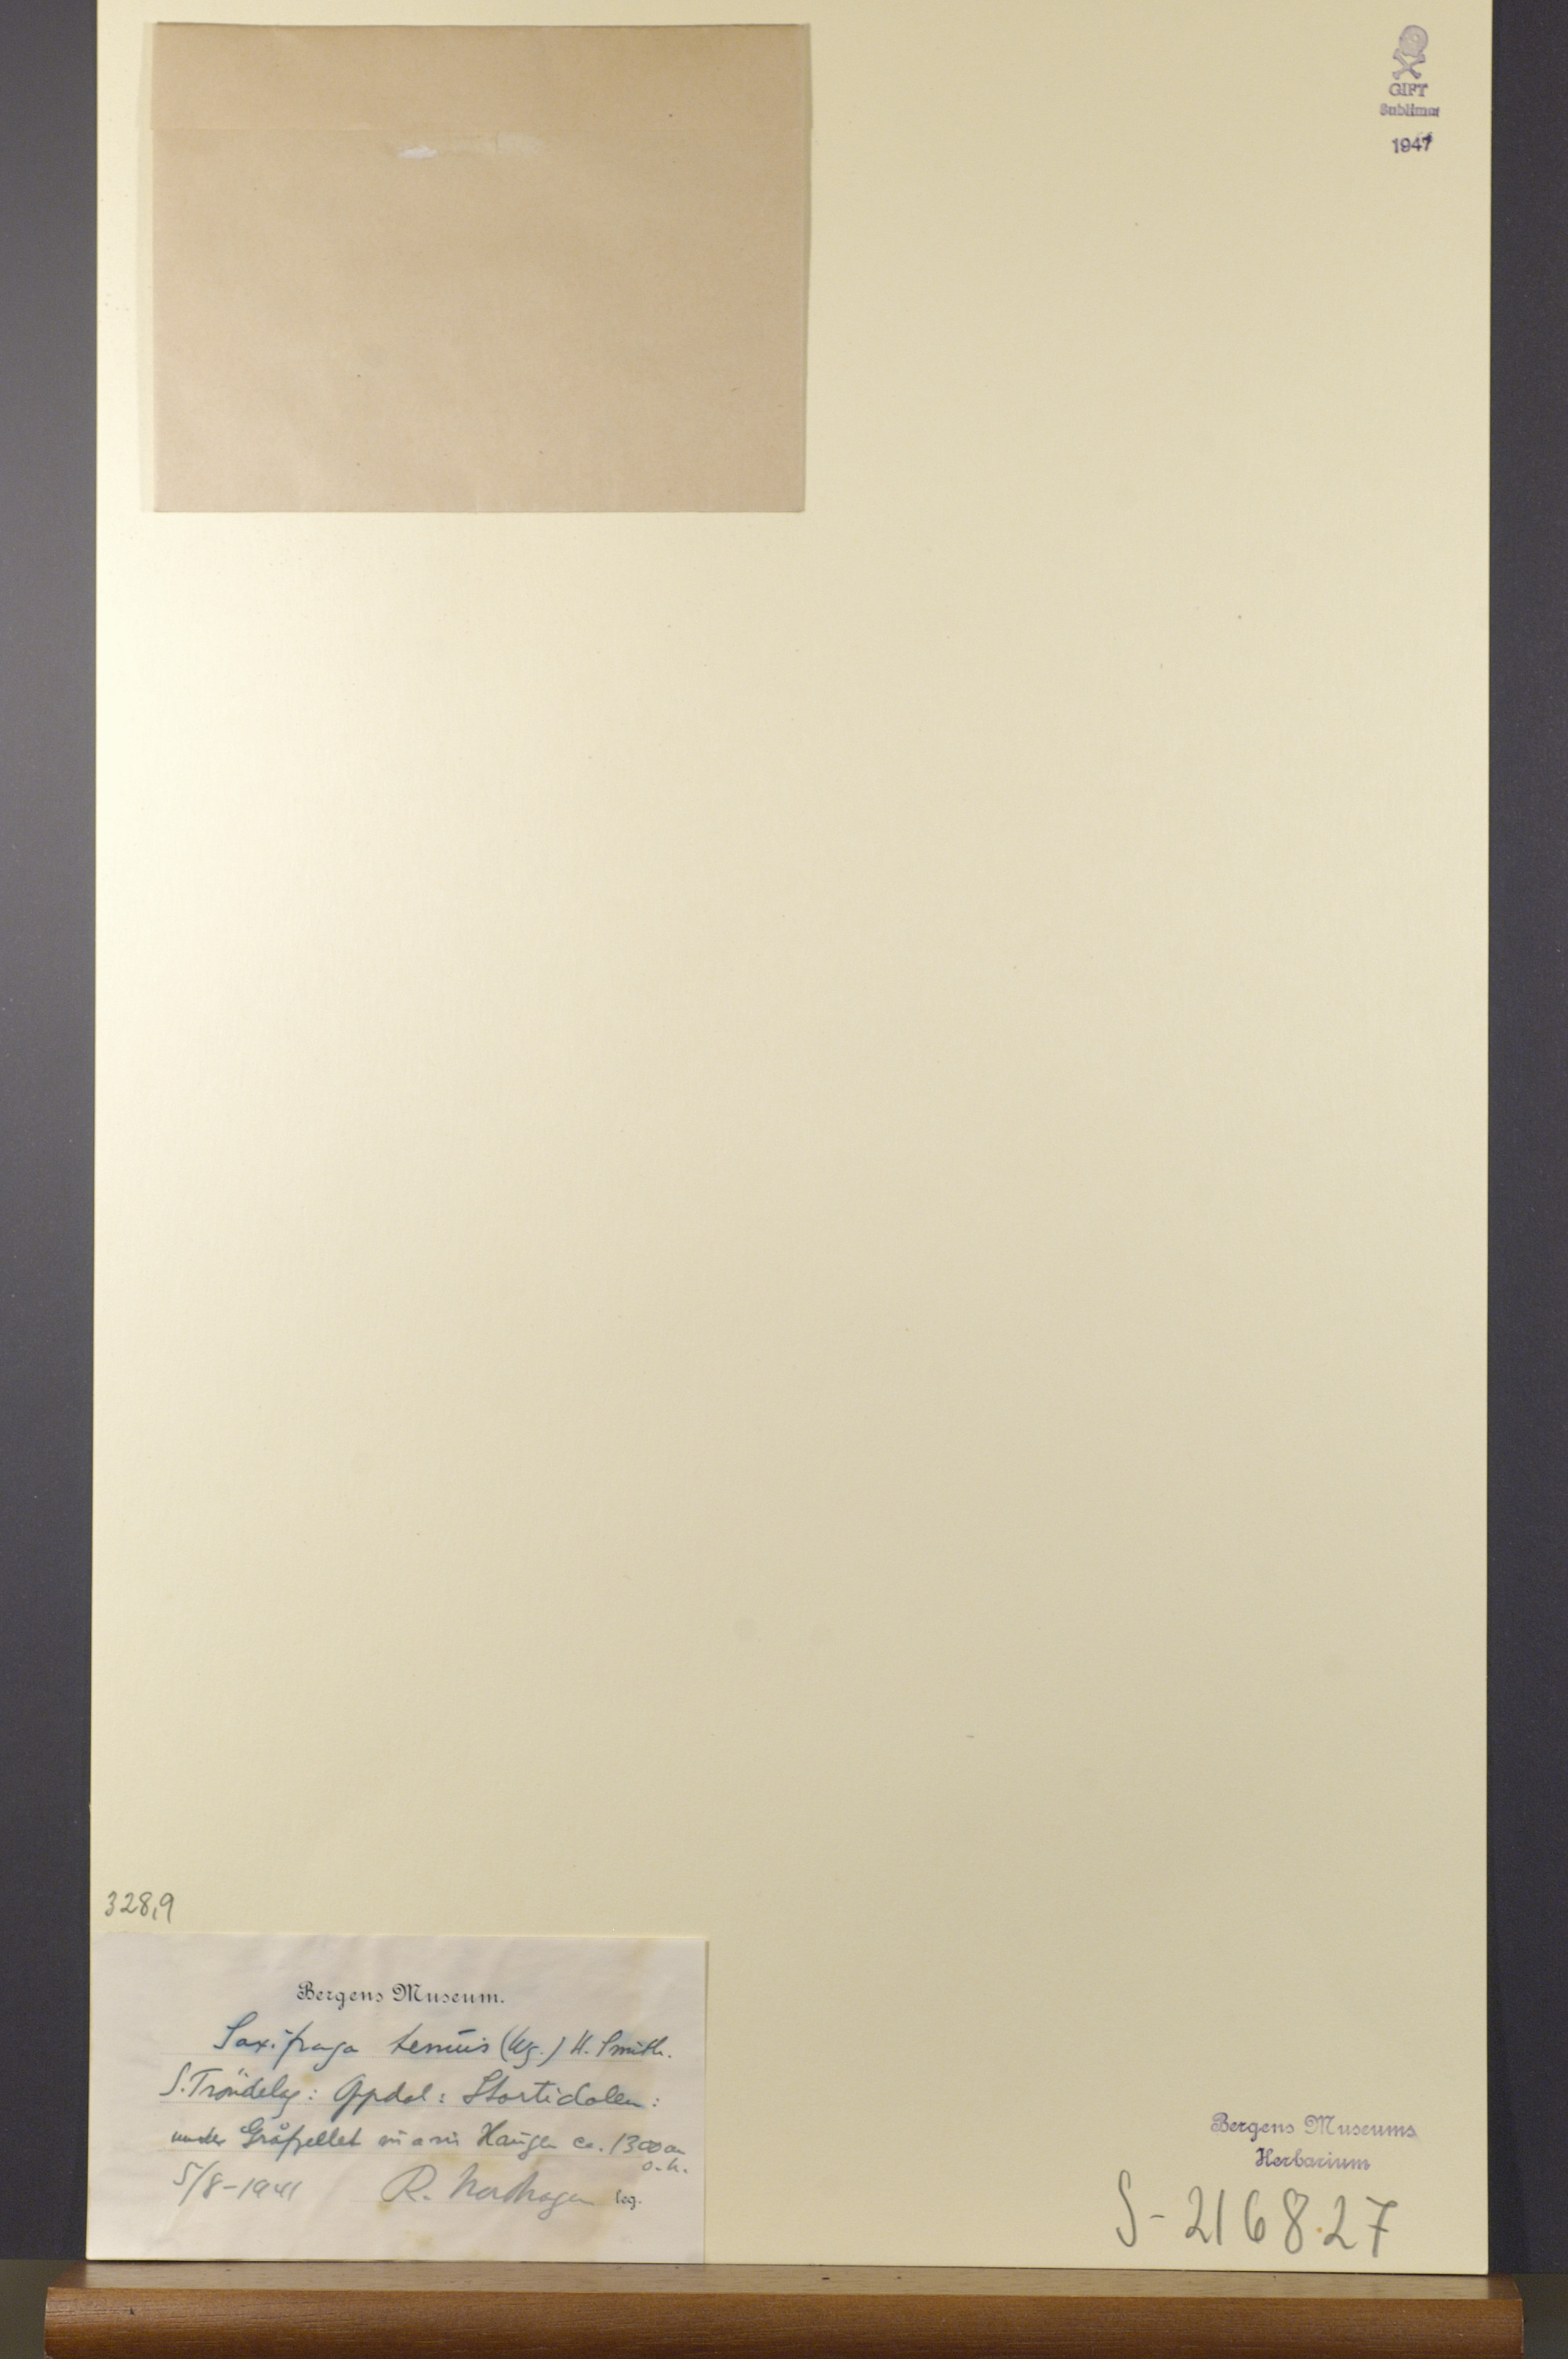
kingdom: Plantae
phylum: Tracheophyta
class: Magnoliopsida
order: Saxifragales
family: Saxifragaceae
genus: Micranthes
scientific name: Micranthes tenuis
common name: Ottertail pass saxifrage
